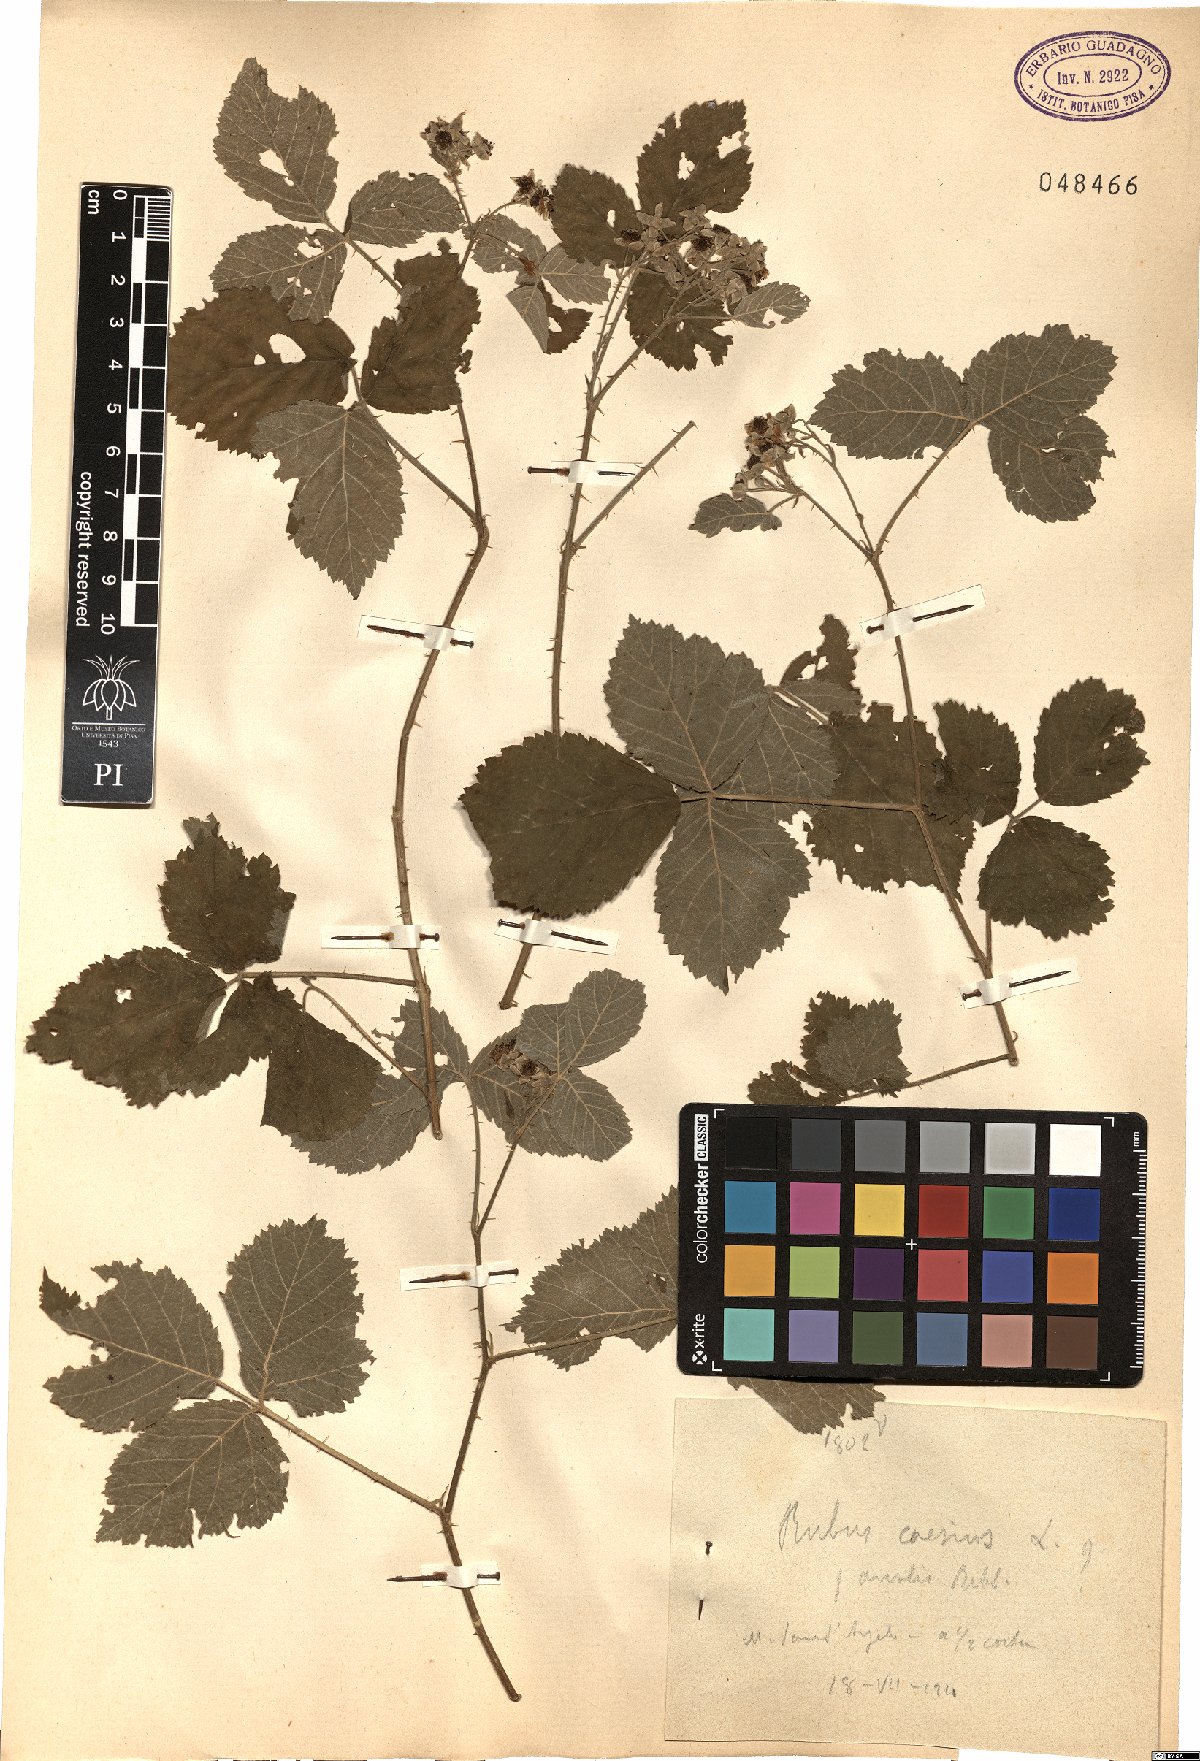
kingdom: Plantae
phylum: Tracheophyta
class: Magnoliopsida
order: Rosales
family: Rosaceae
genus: Rubus
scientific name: Rubus caesius
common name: Dewberry
